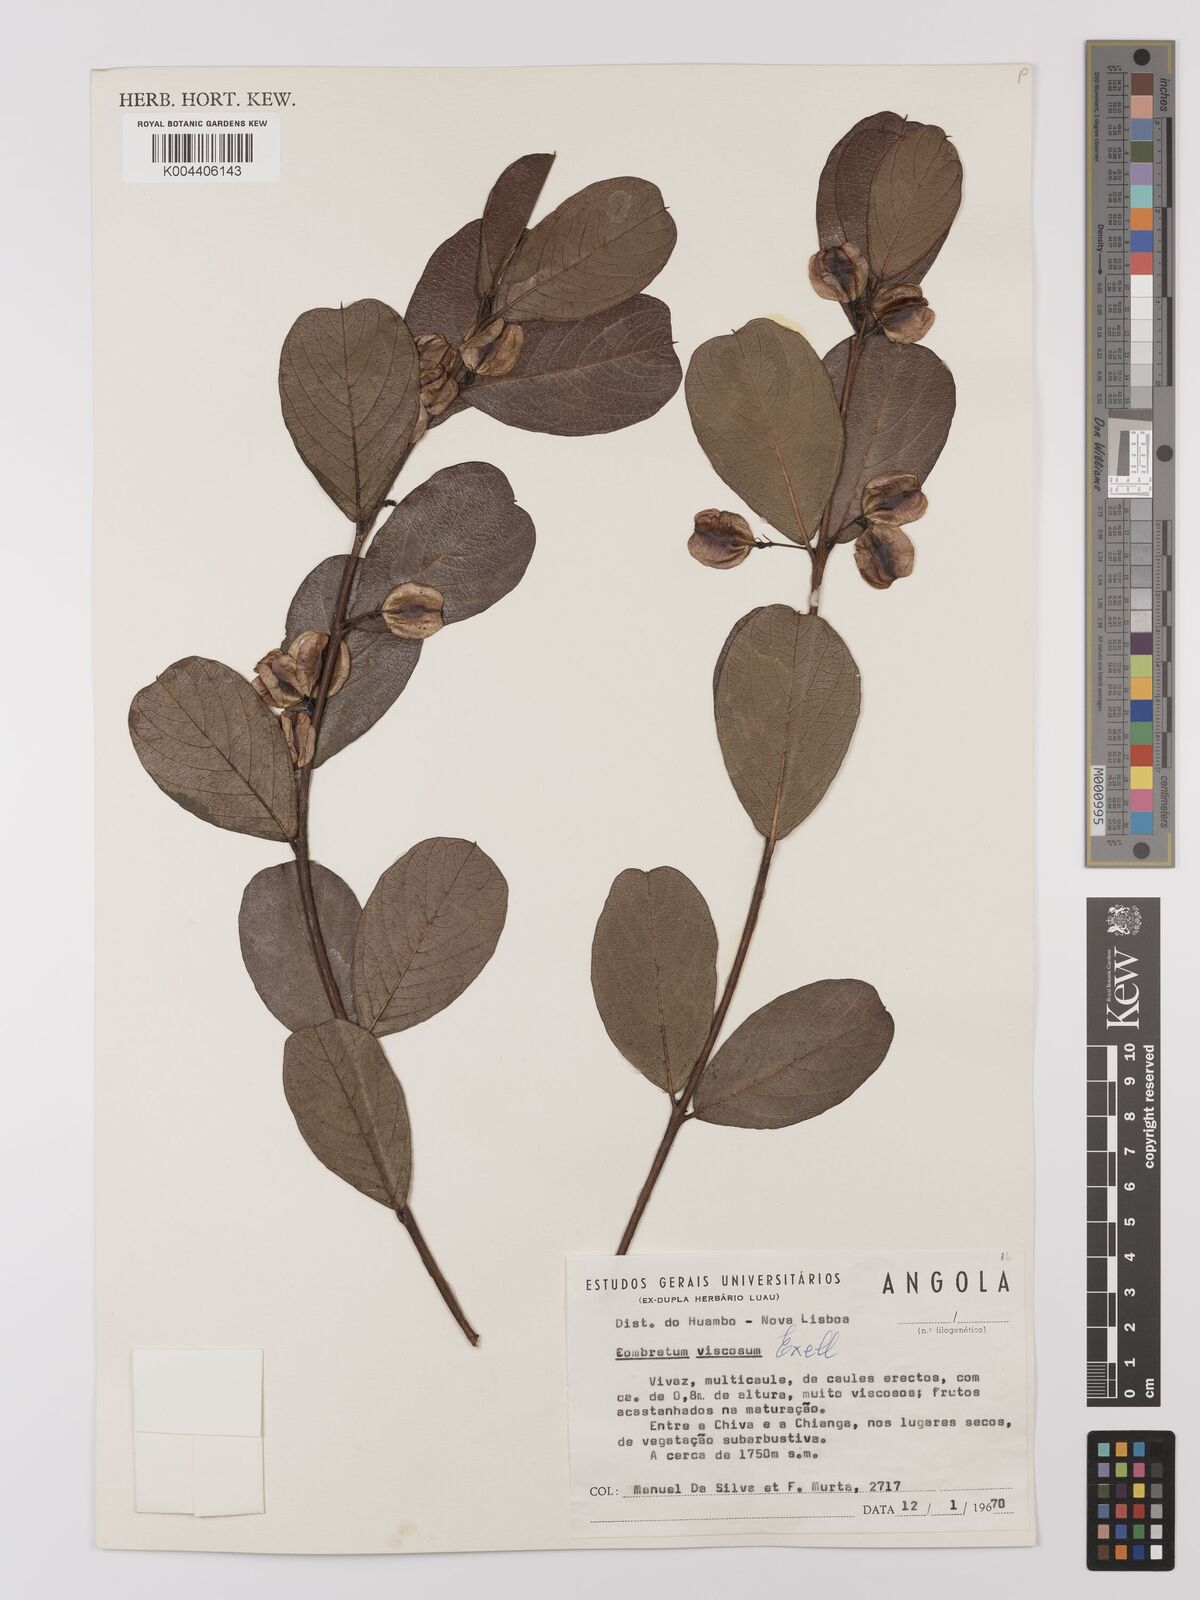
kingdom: Plantae
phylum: Tracheophyta
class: Magnoliopsida
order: Myrtales
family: Combretaceae
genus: Combretum
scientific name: Combretum viscosum
